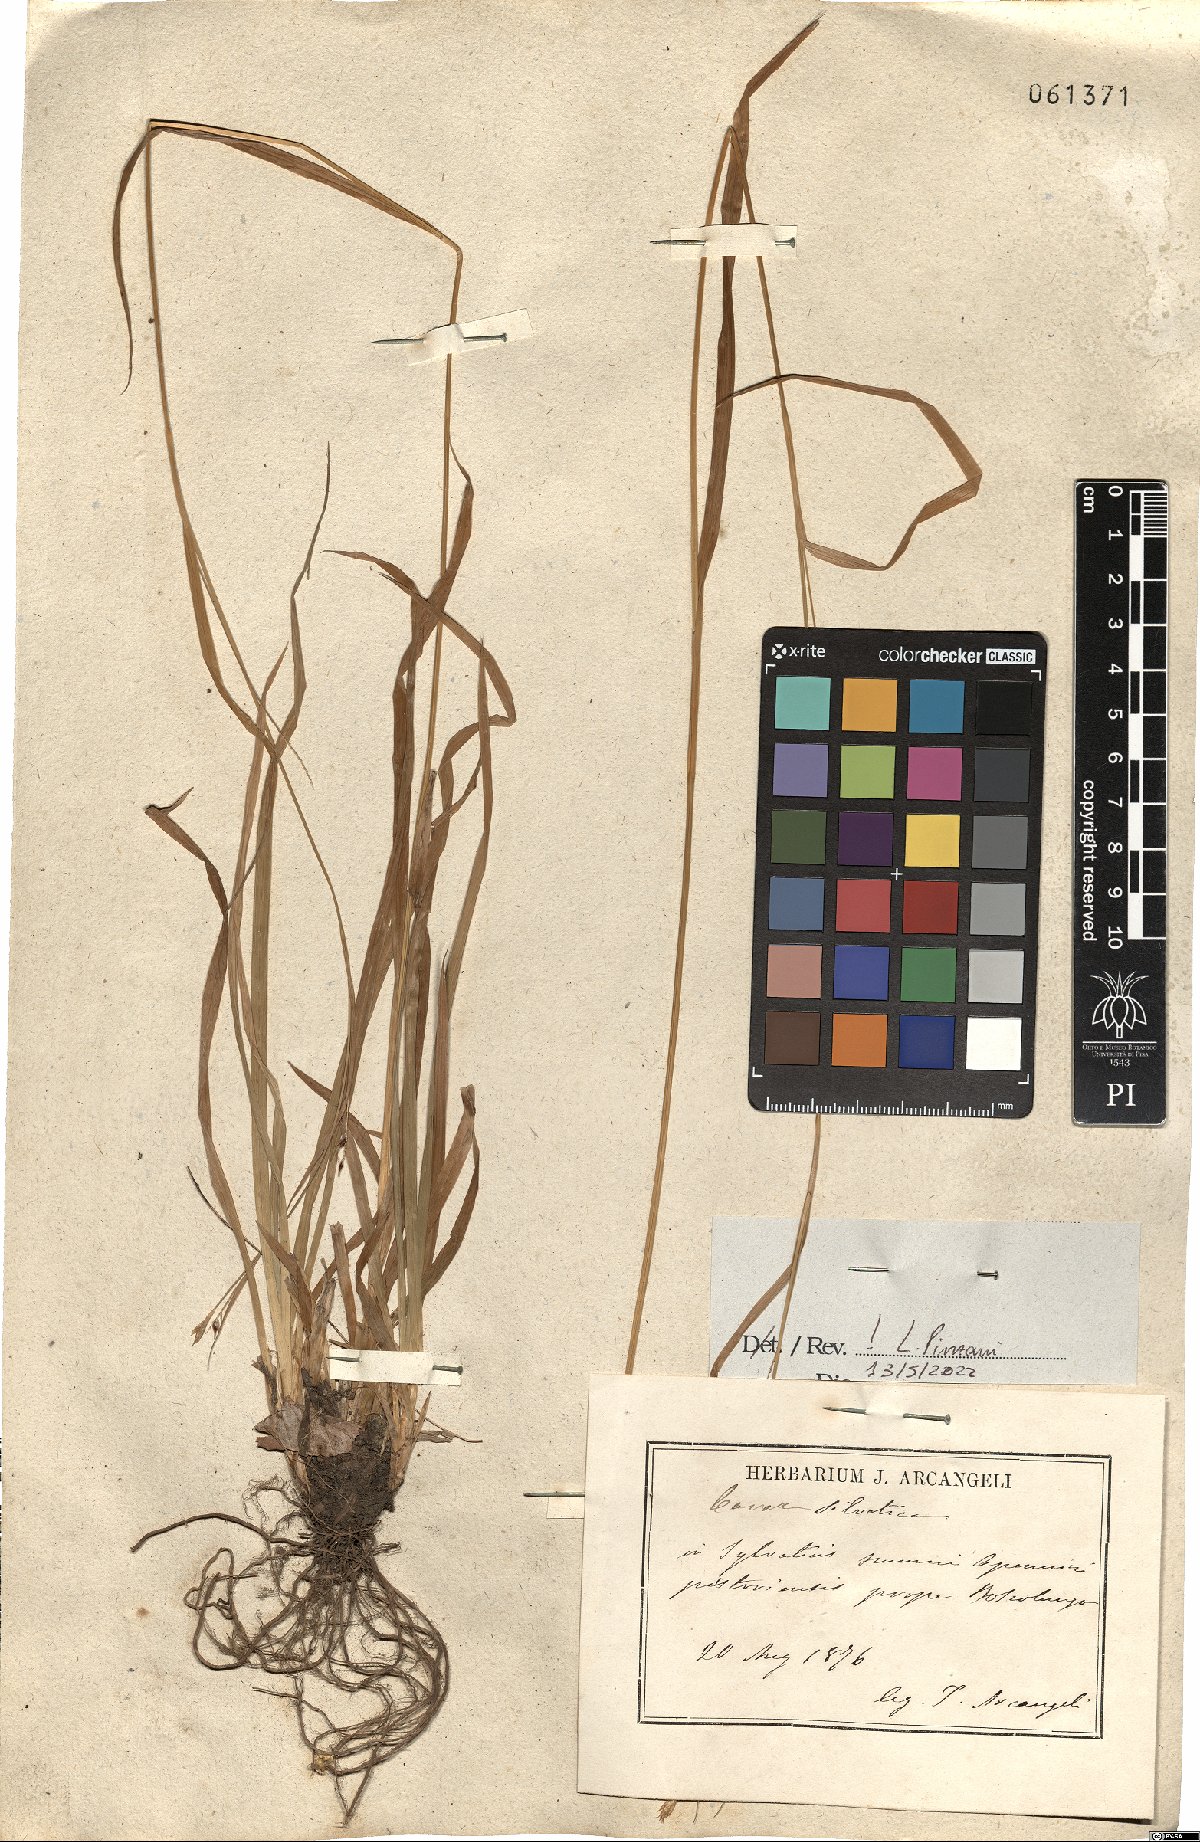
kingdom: Plantae
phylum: Tracheophyta
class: Liliopsida
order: Poales
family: Cyperaceae
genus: Carex
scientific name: Carex sylvatica
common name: Wood-sedge
